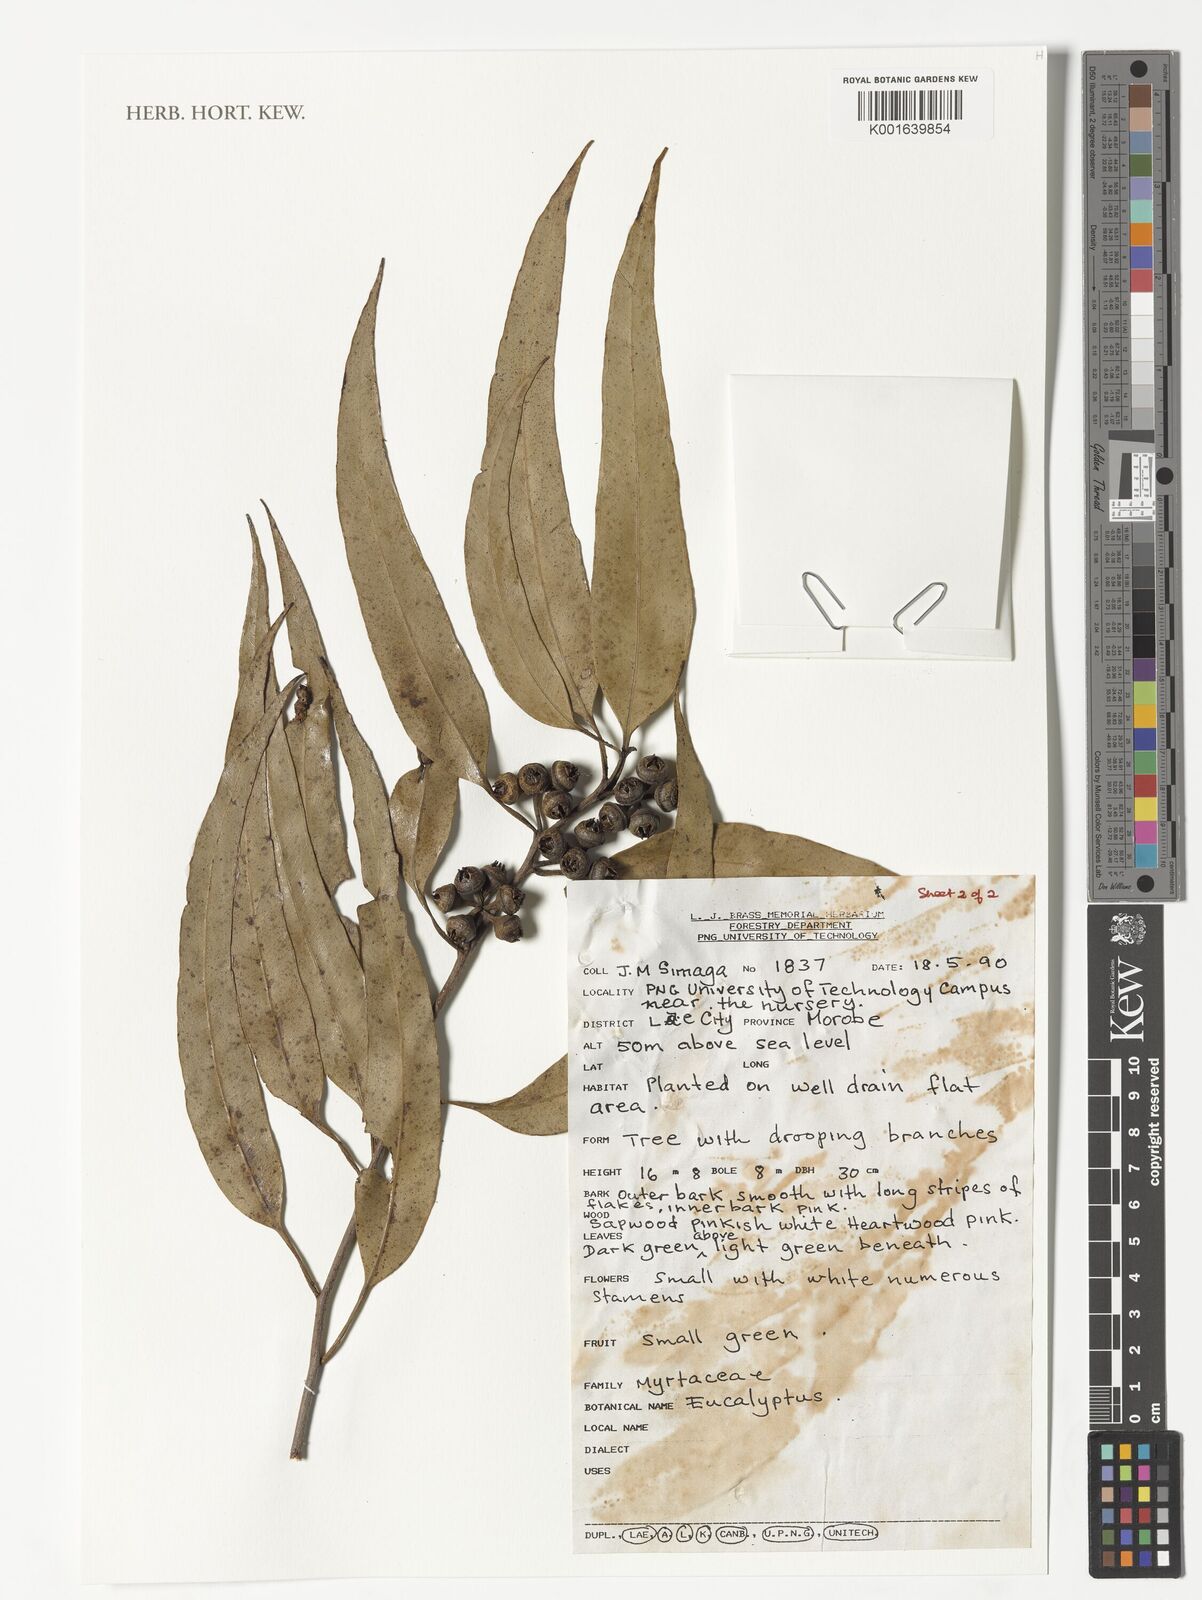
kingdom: Plantae
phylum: Tracheophyta
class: Magnoliopsida
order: Myrtales
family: Myrtaceae
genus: Eucalyptus
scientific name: Eucalyptus
